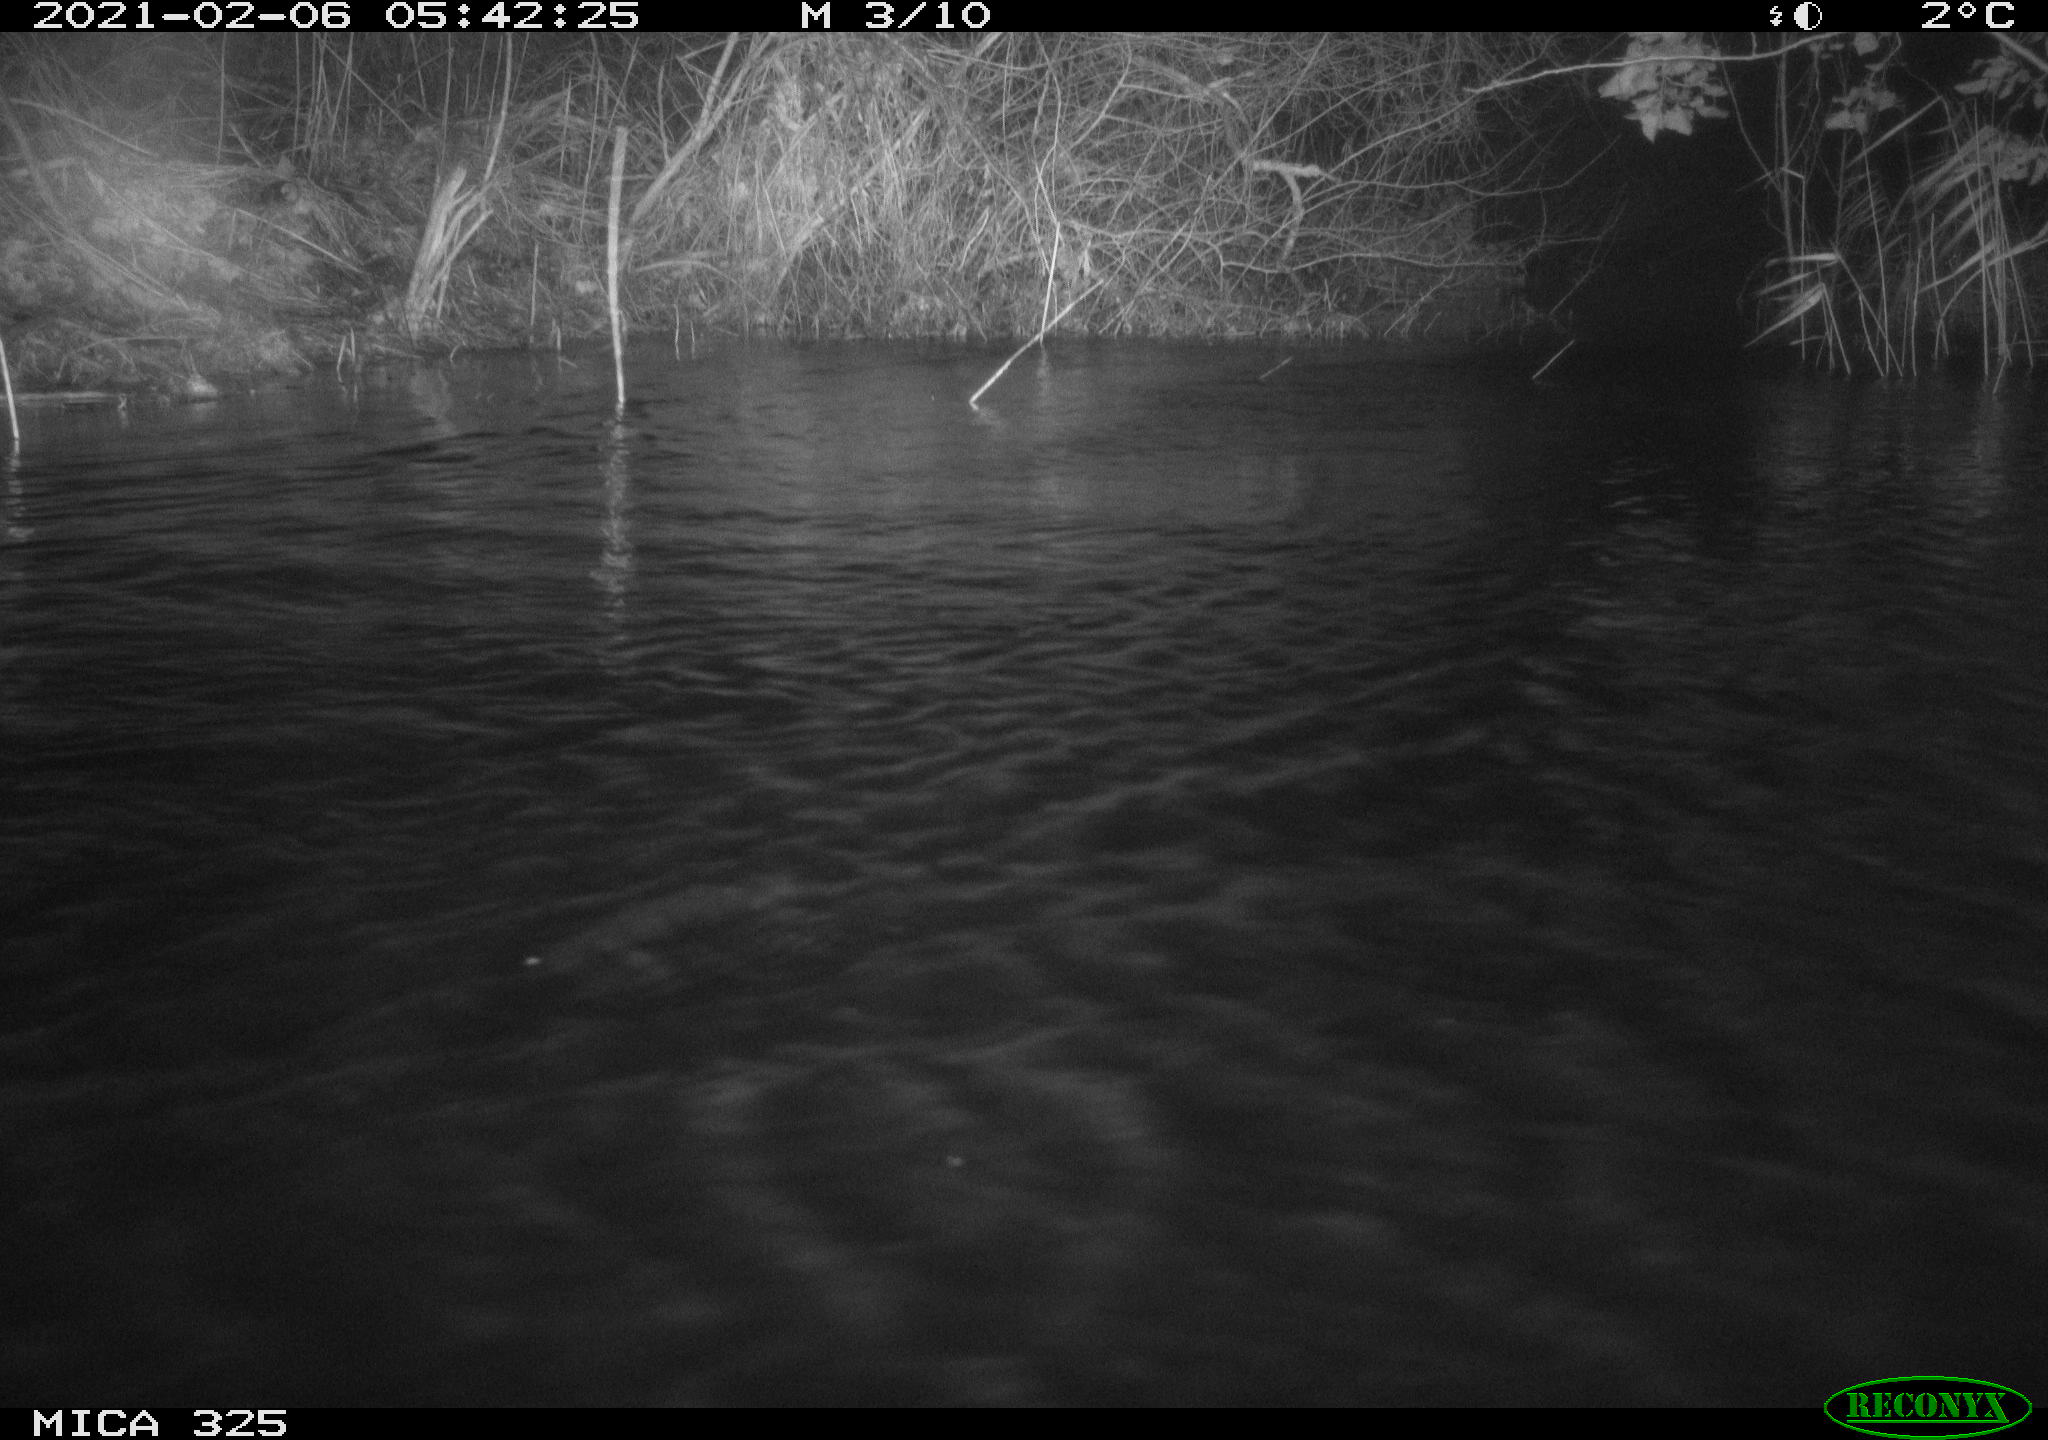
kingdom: Animalia
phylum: Chordata
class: Mammalia
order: Rodentia
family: Myocastoridae
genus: Myocastor
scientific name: Myocastor coypus
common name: Coypu
